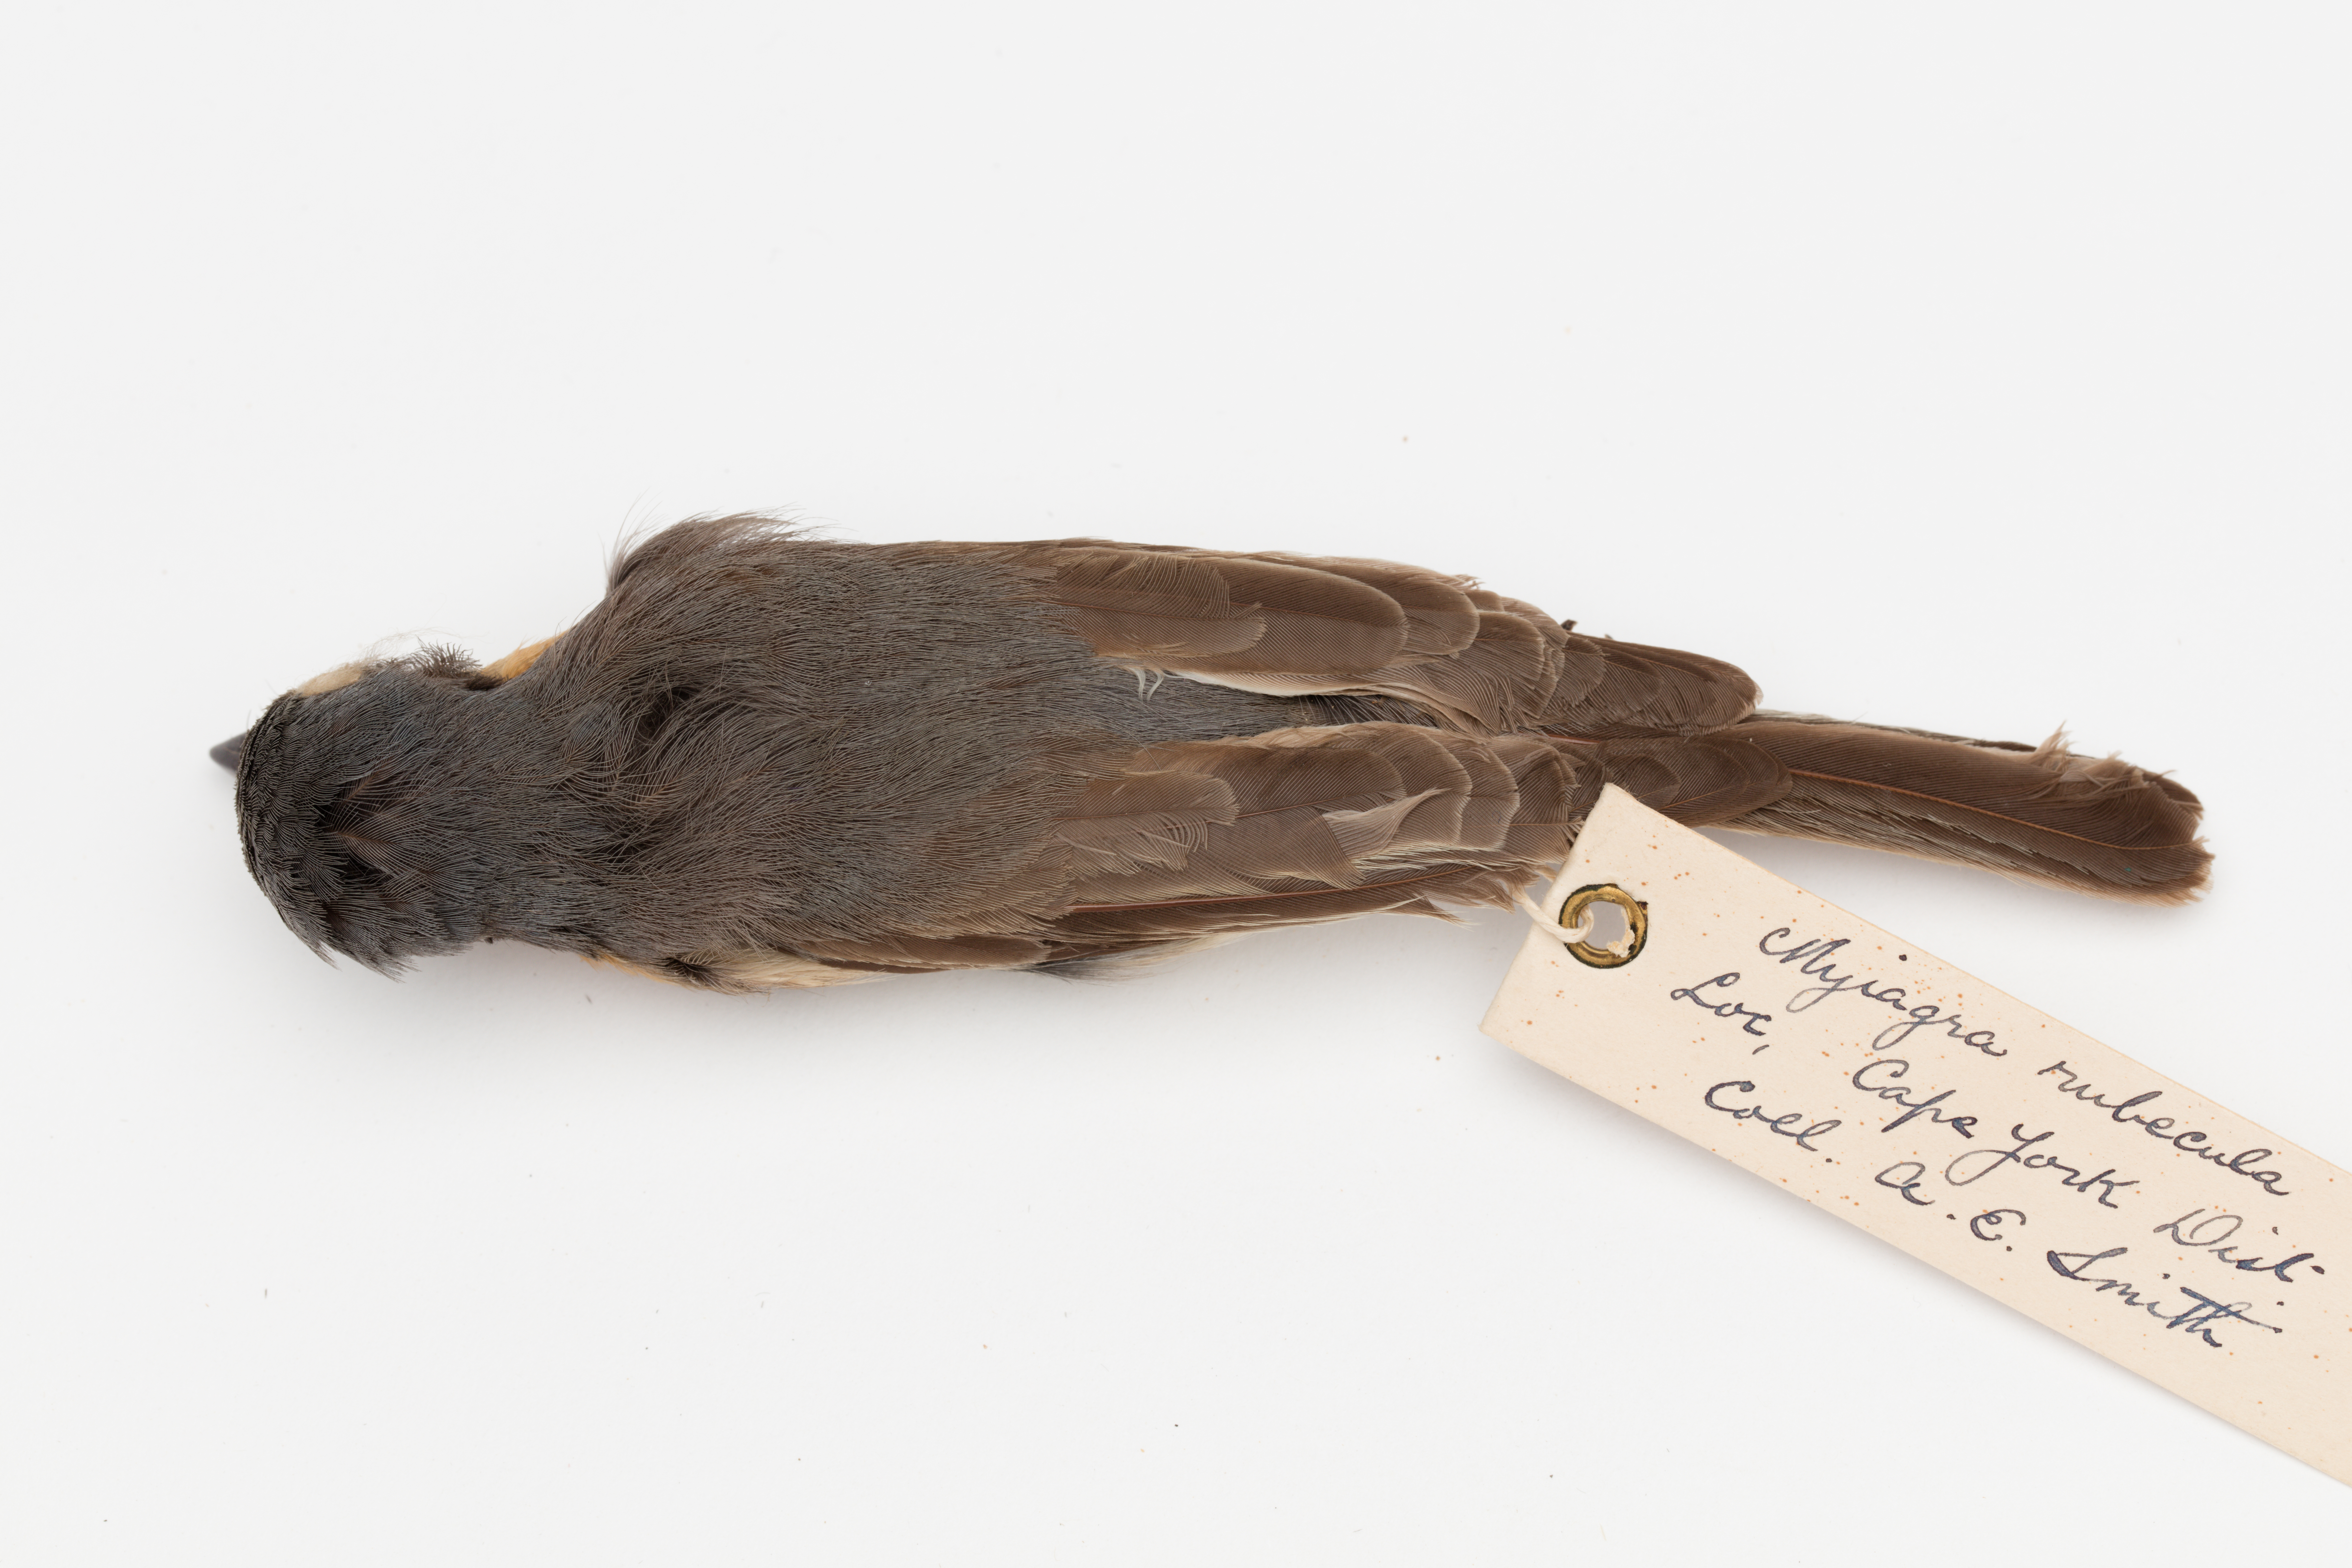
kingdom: Animalia
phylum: Chordata
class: Aves
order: Passeriformes
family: Monarchidae
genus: Myiagra
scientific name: Myiagra rubecula
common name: Leaden flycatcher
